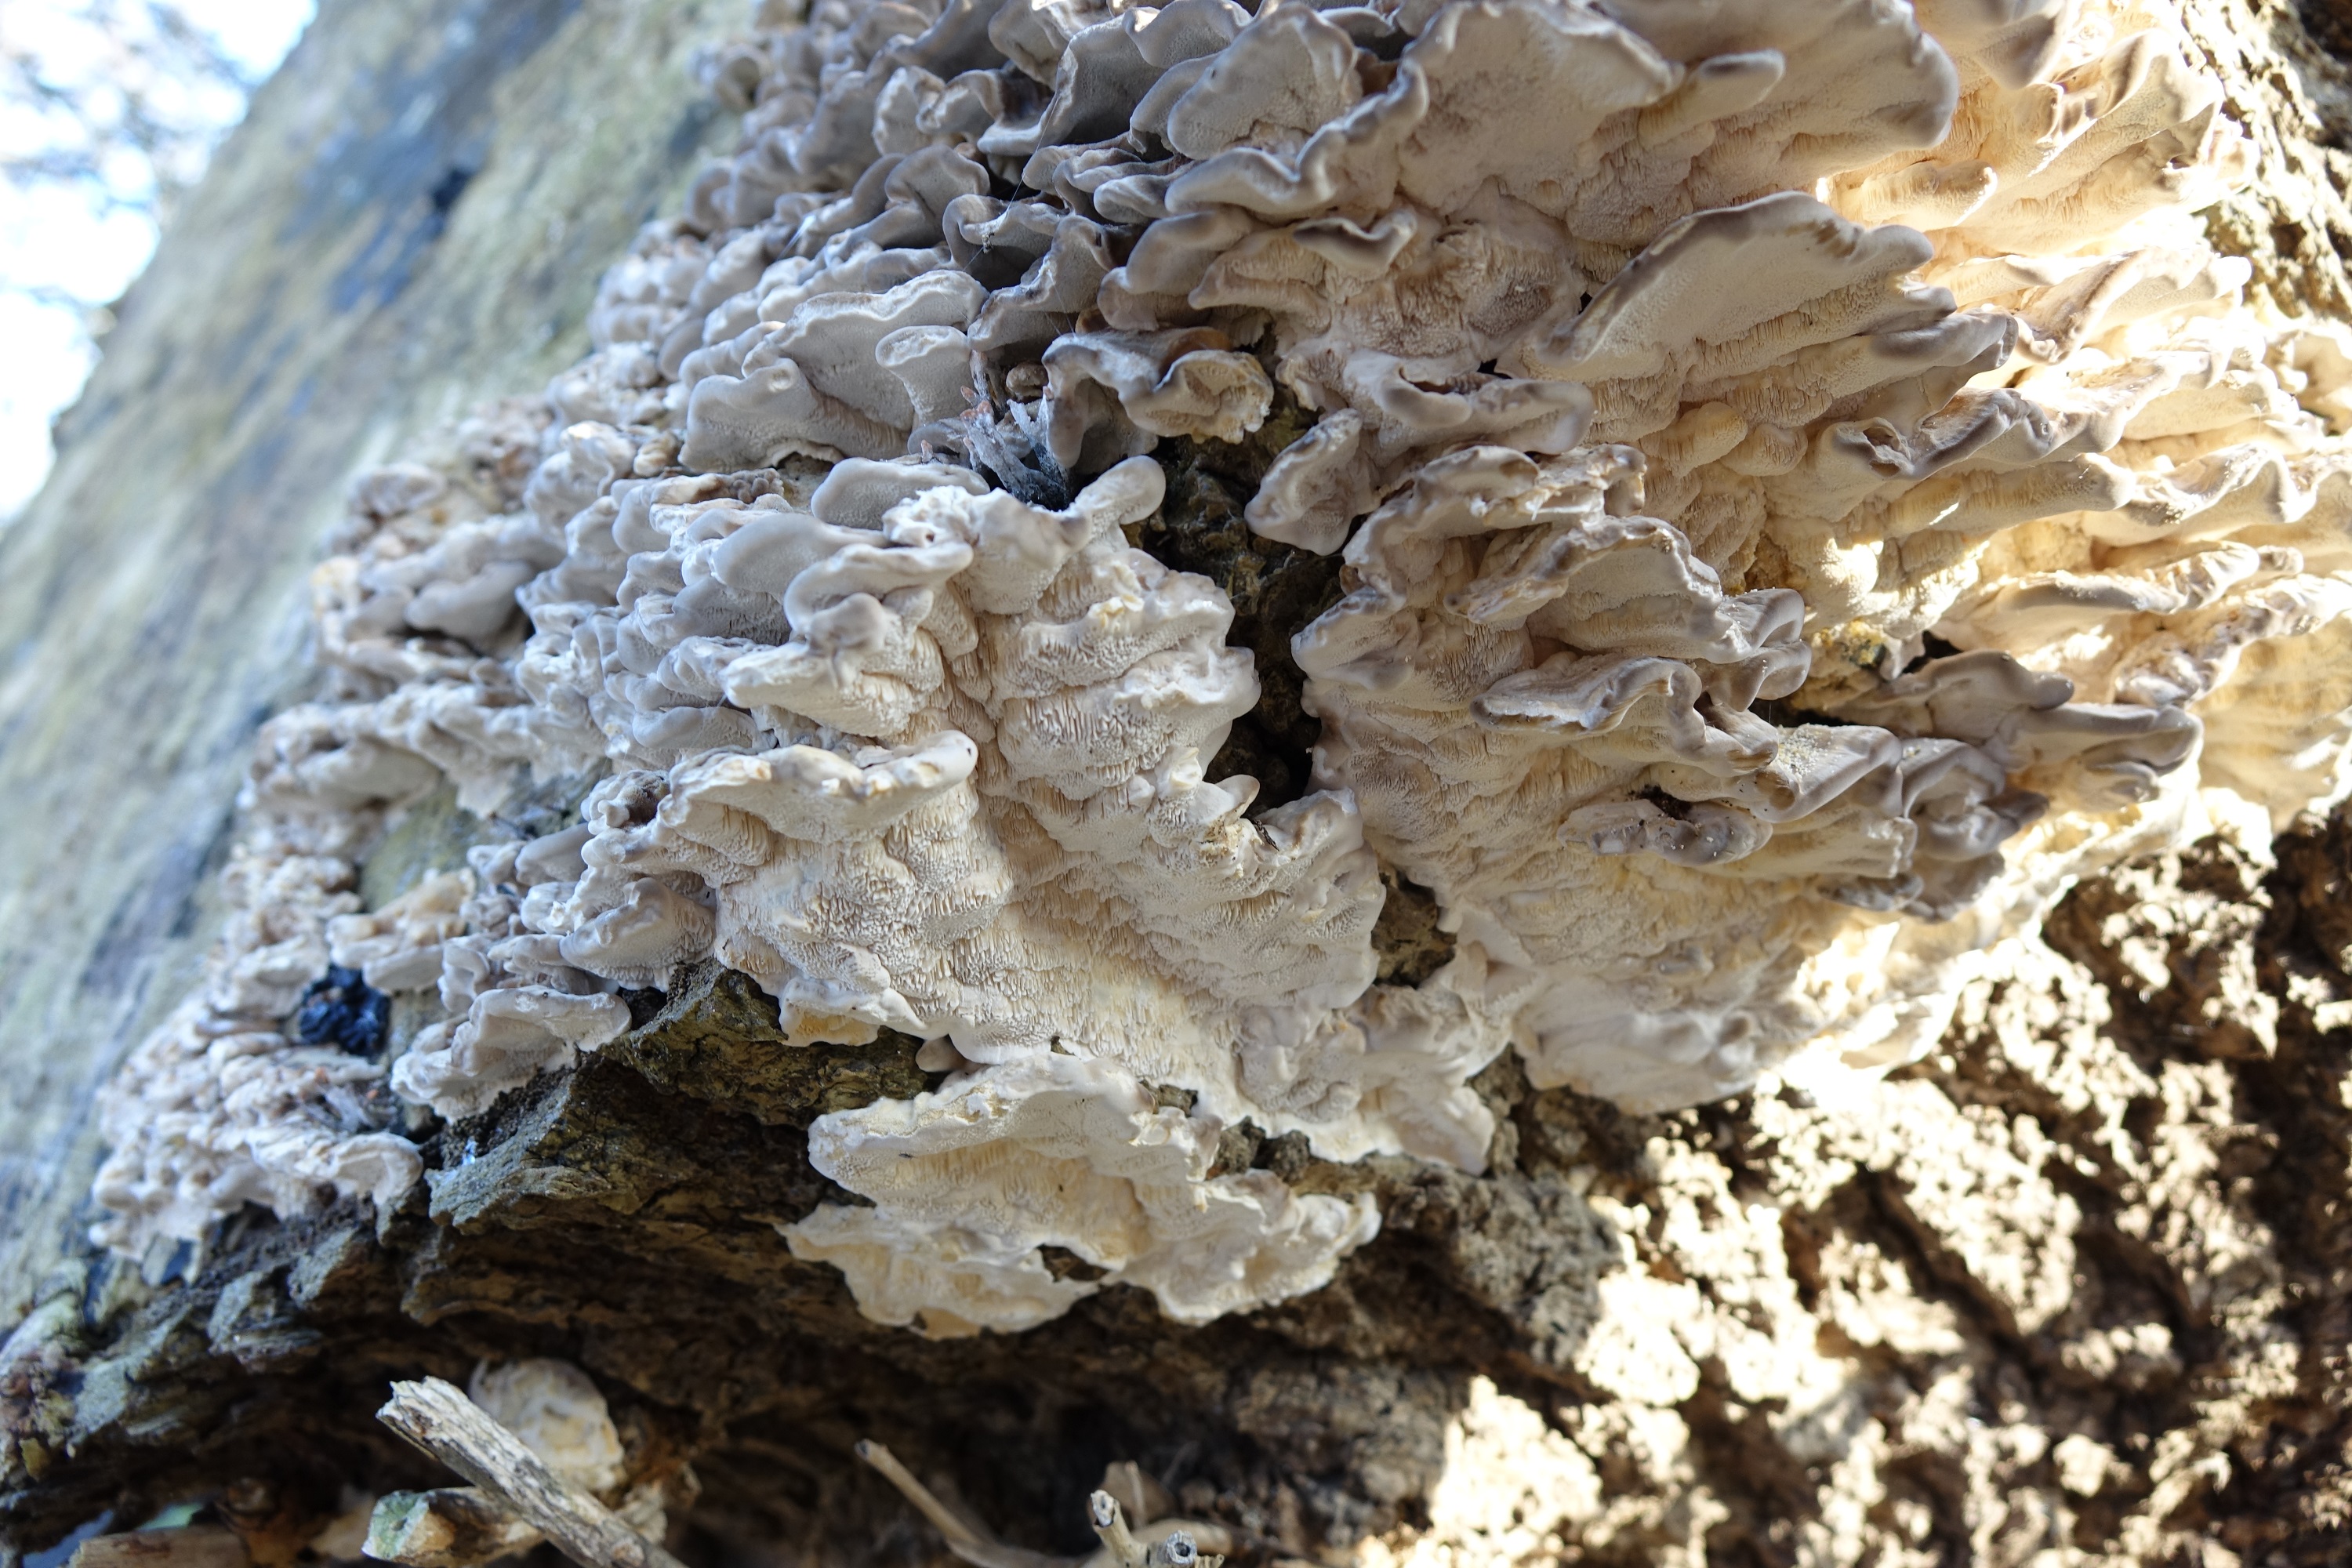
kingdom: Fungi
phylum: Basidiomycota
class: Agaricomycetes
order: Polyporales
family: Polyporaceae
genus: Trametes
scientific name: Trametes versicolor
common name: Turkeytail
